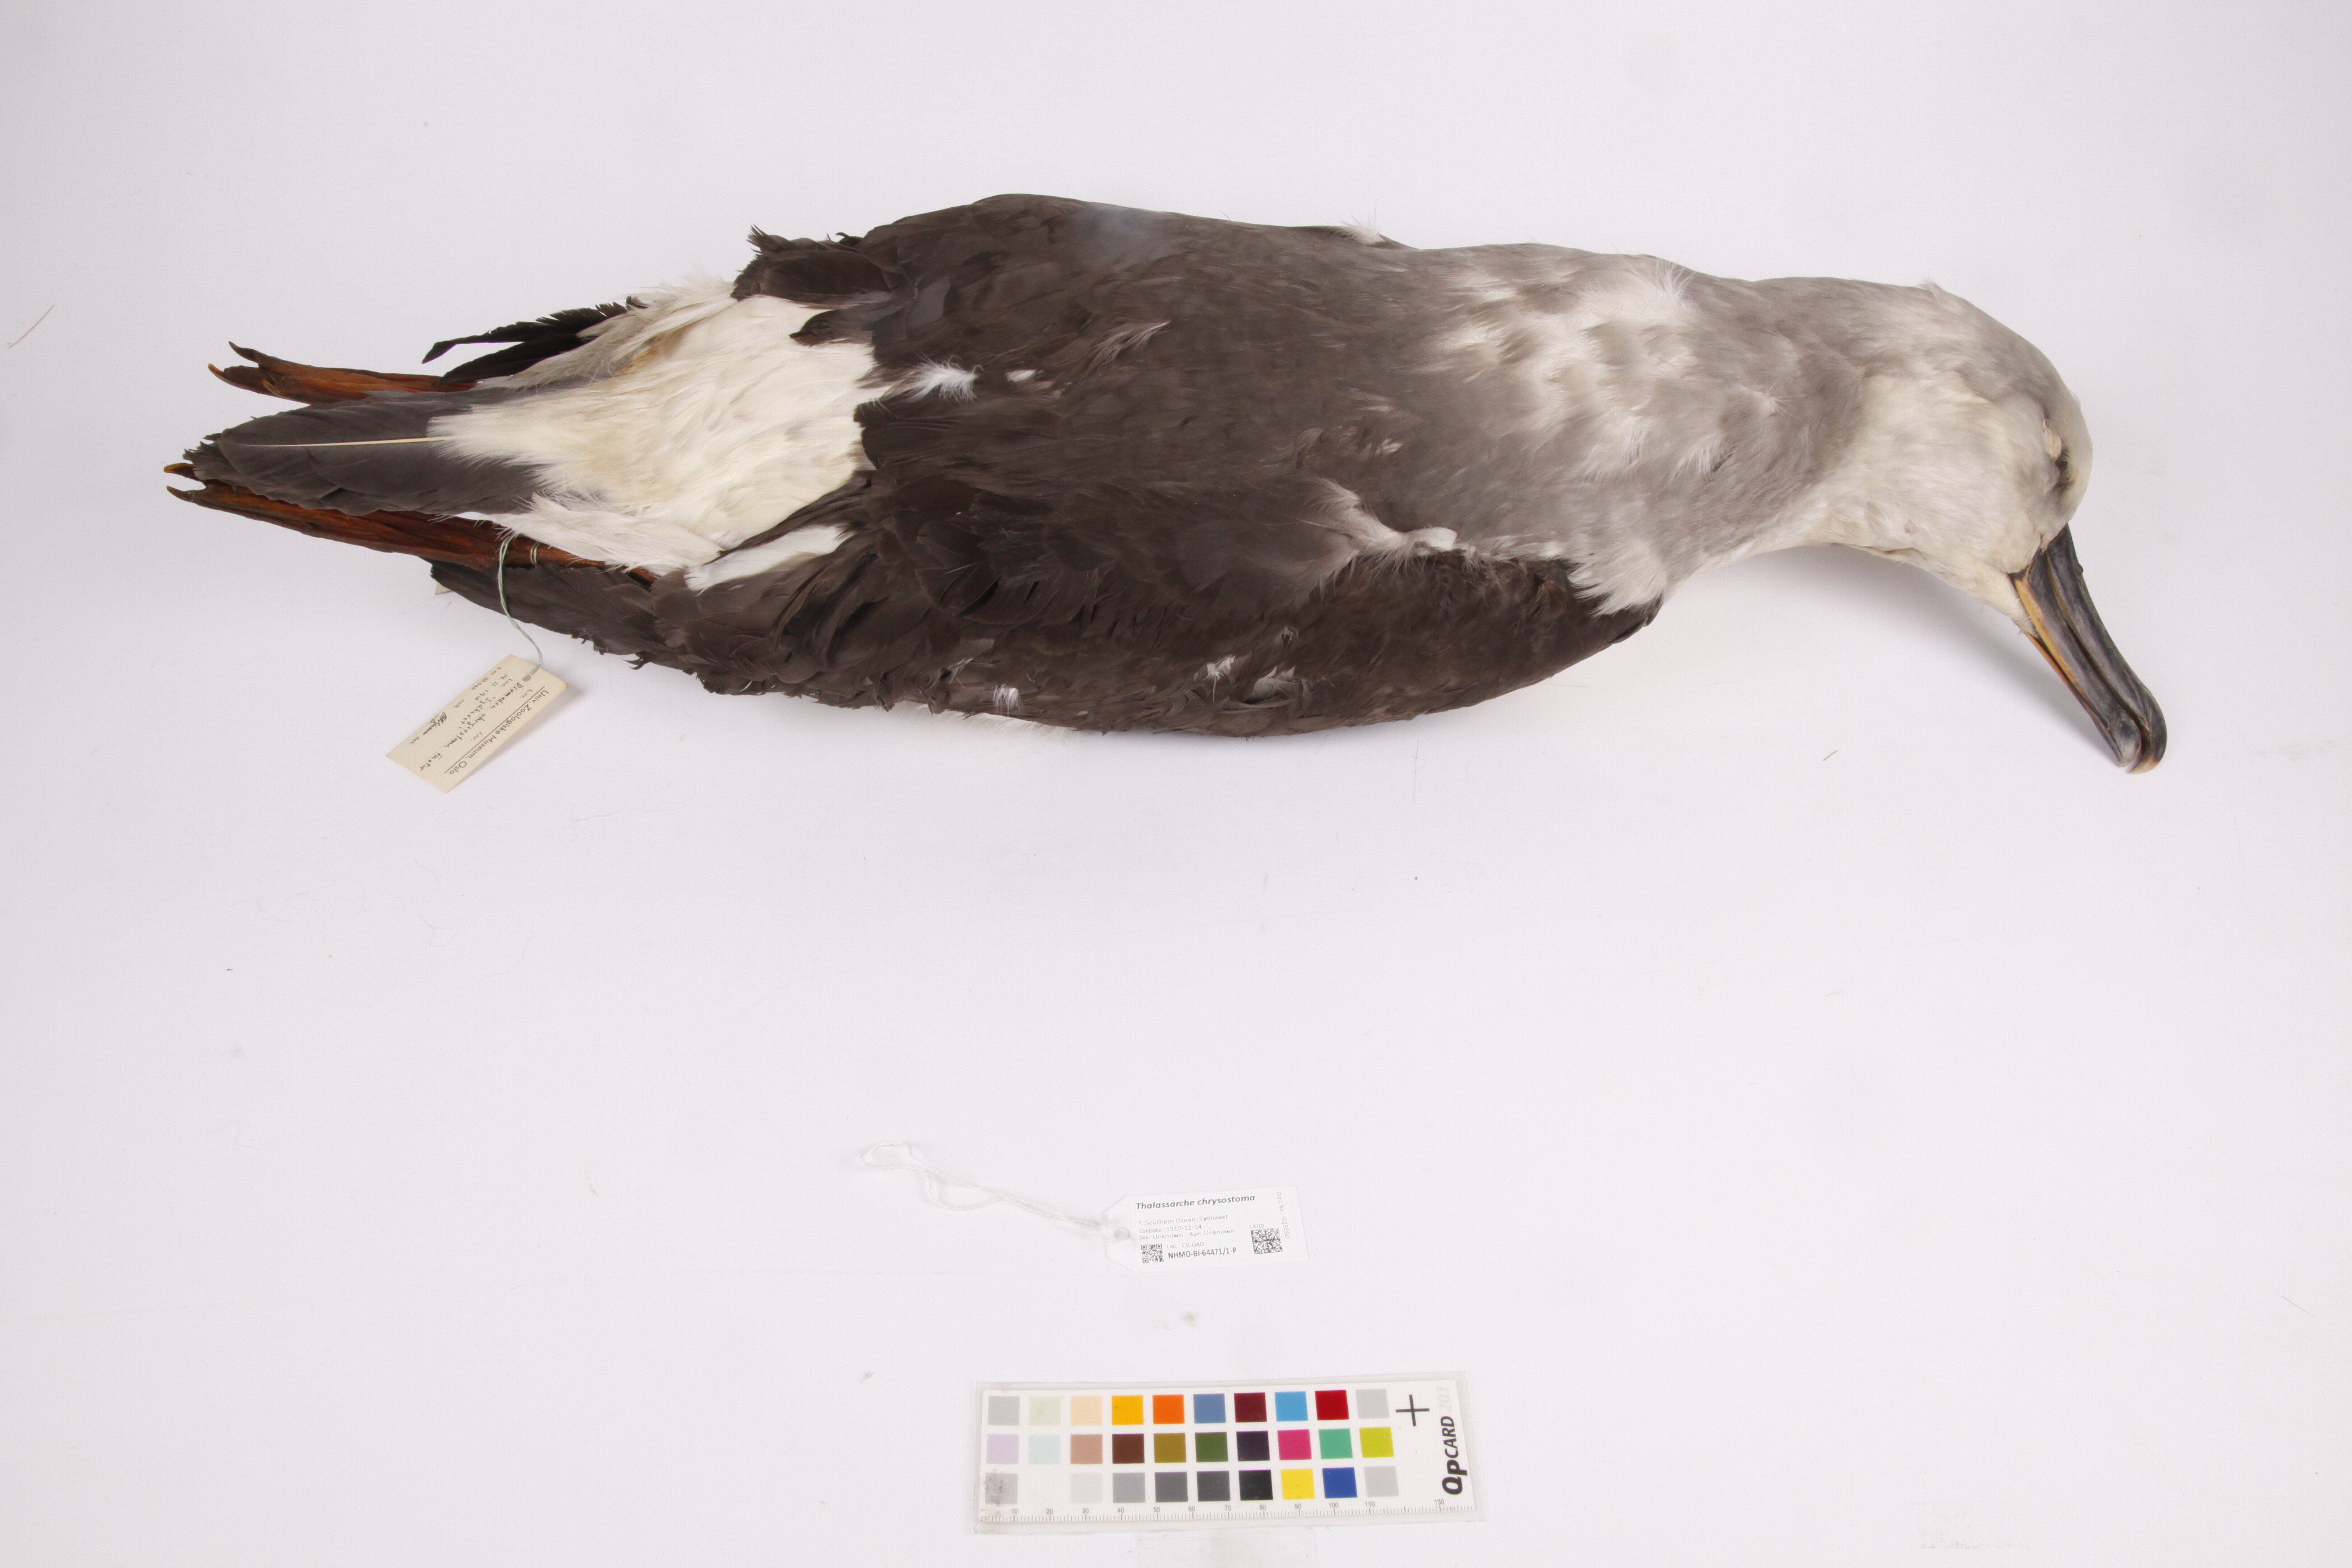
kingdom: Animalia
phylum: Chordata
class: Aves
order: Procellariiformes
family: Diomedeidae
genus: Thalassarche
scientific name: Thalassarche chrysostoma
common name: Grey-headed albatross
